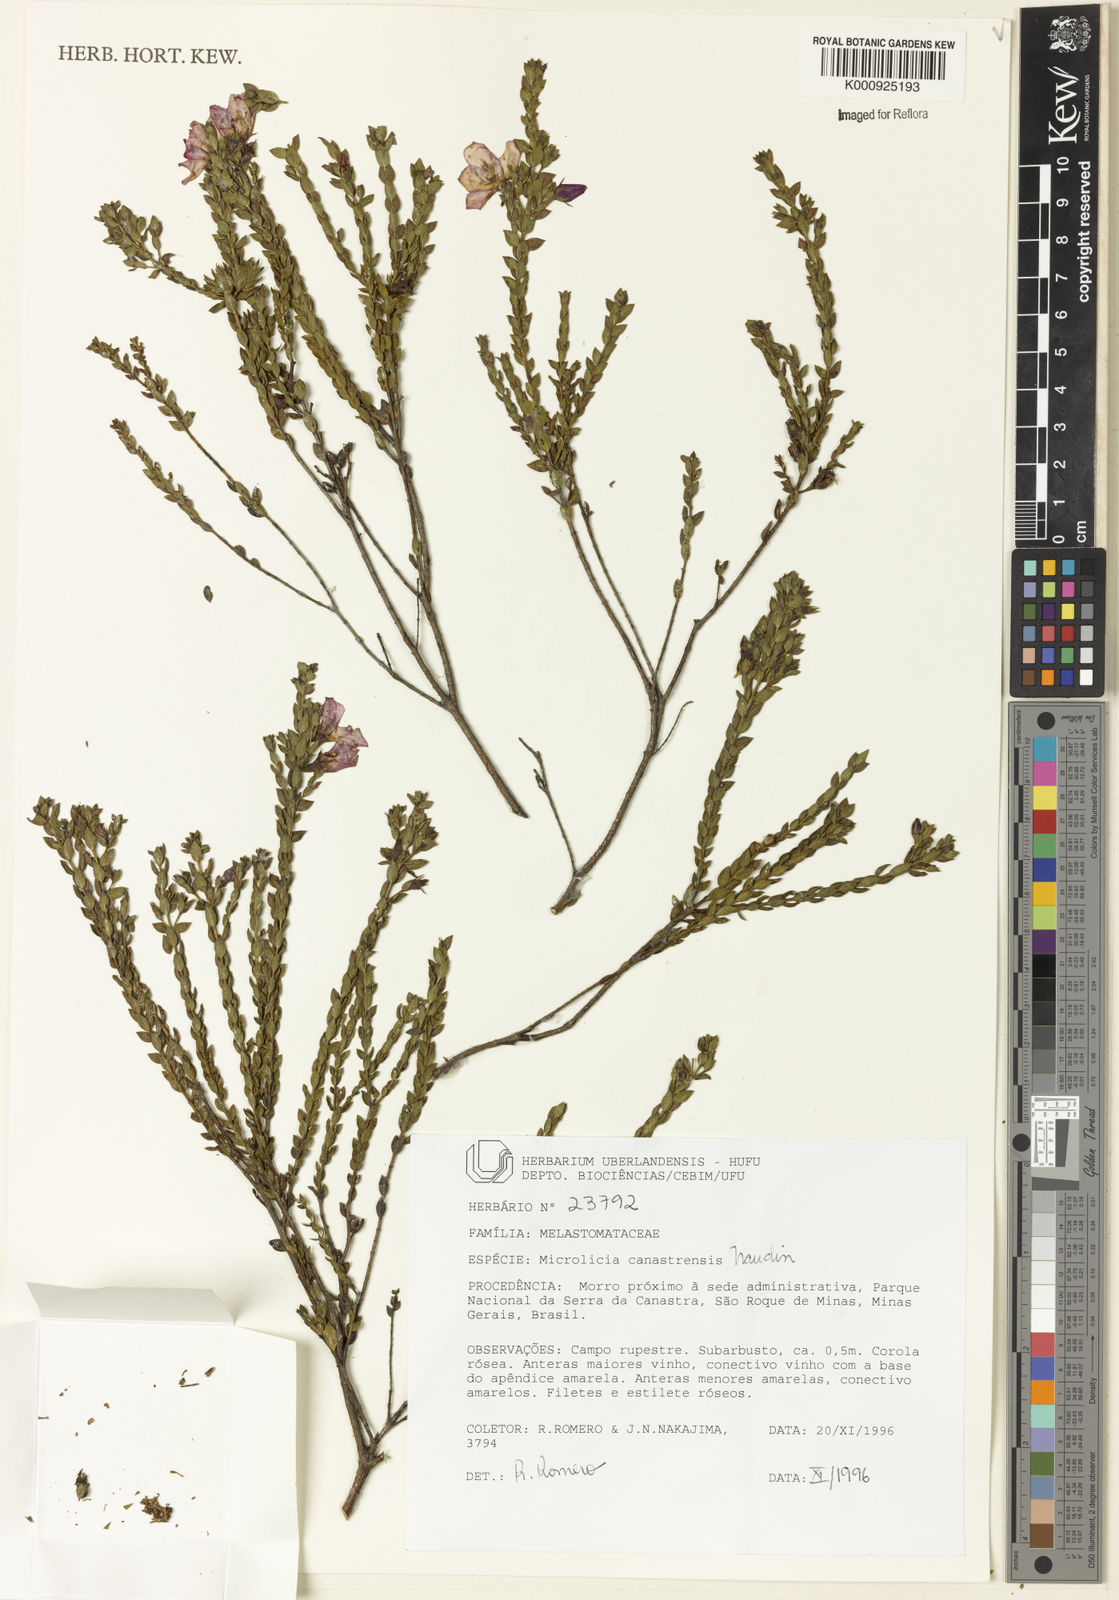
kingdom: Plantae
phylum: Tracheophyta
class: Magnoliopsida
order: Myrtales
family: Melastomataceae
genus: Microlicia
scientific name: Microlicia canastrensis
